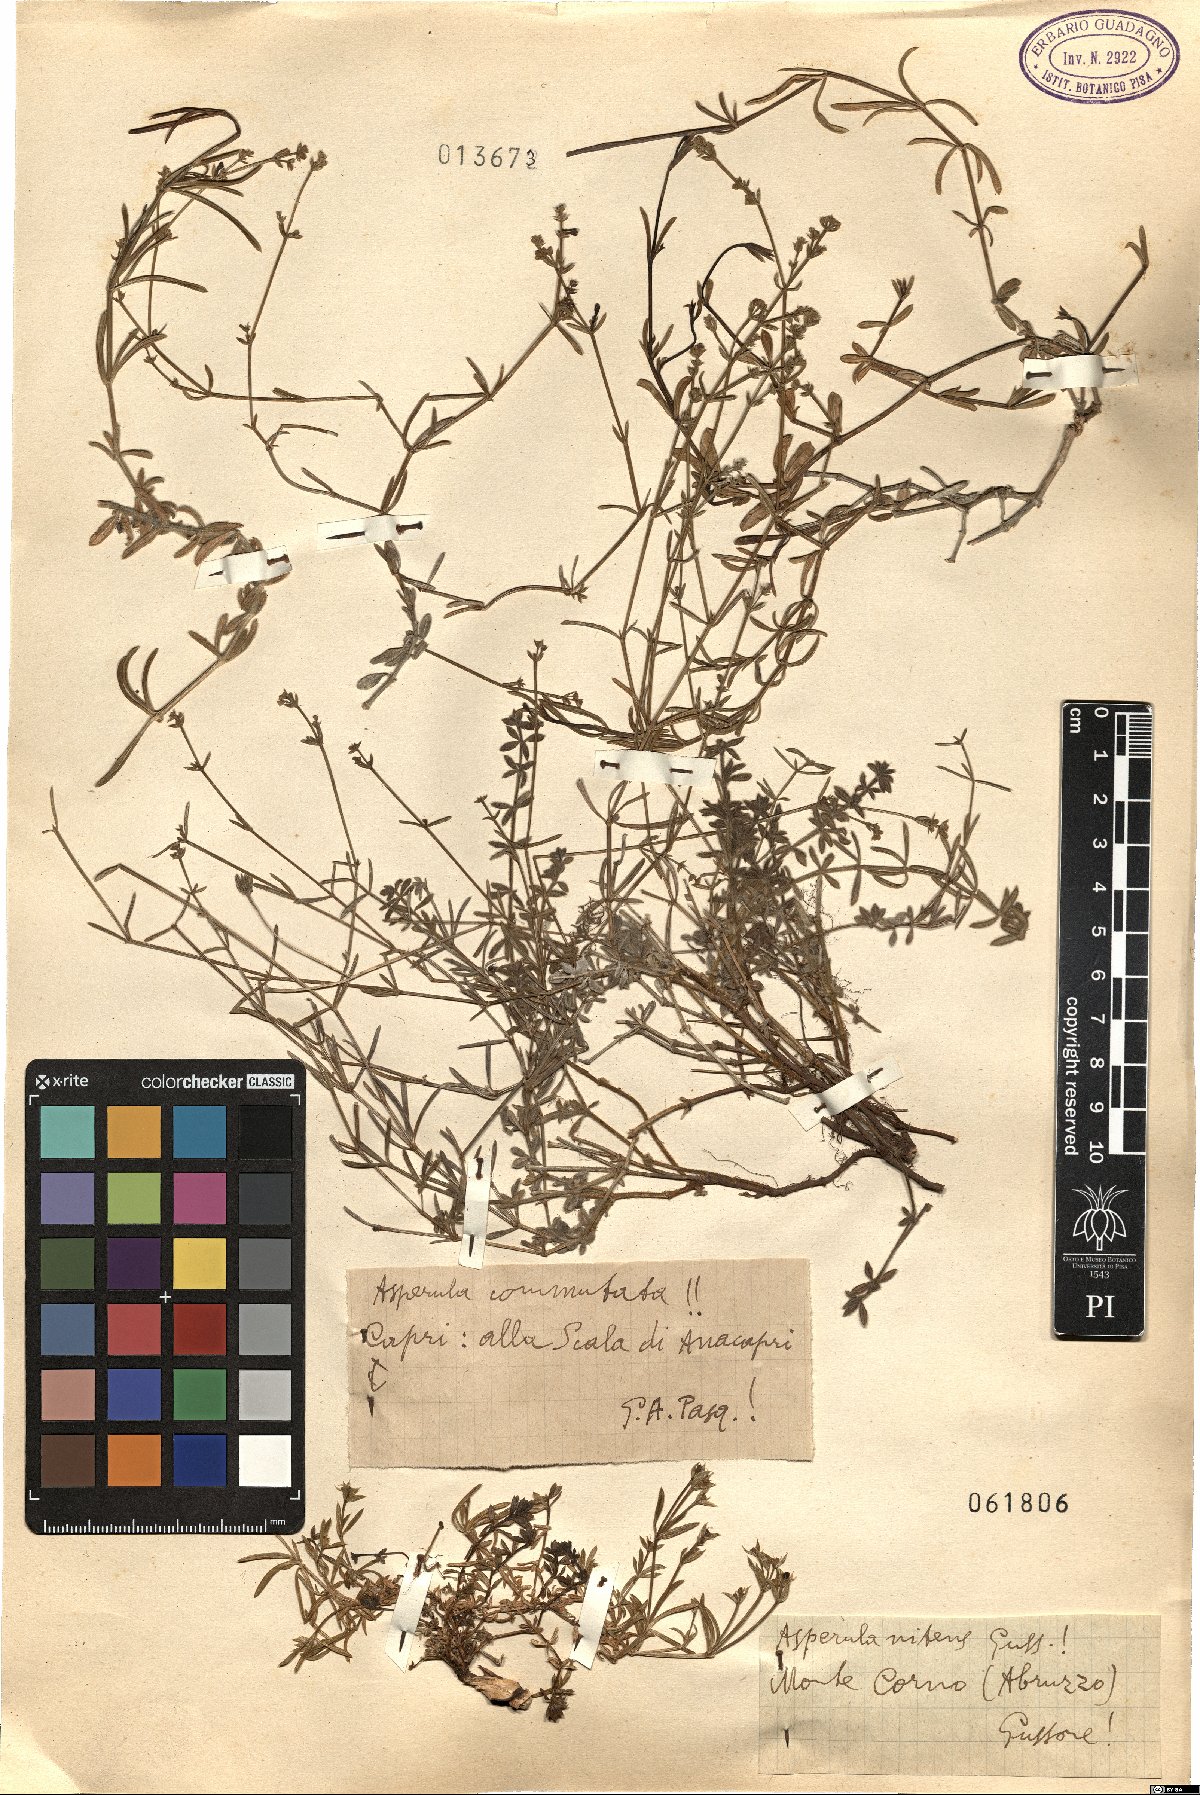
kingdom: Plantae
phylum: Tracheophyta
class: Magnoliopsida
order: Gentianales
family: Rubiaceae
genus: Cynanchica
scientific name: Cynanchica pyrenaica
